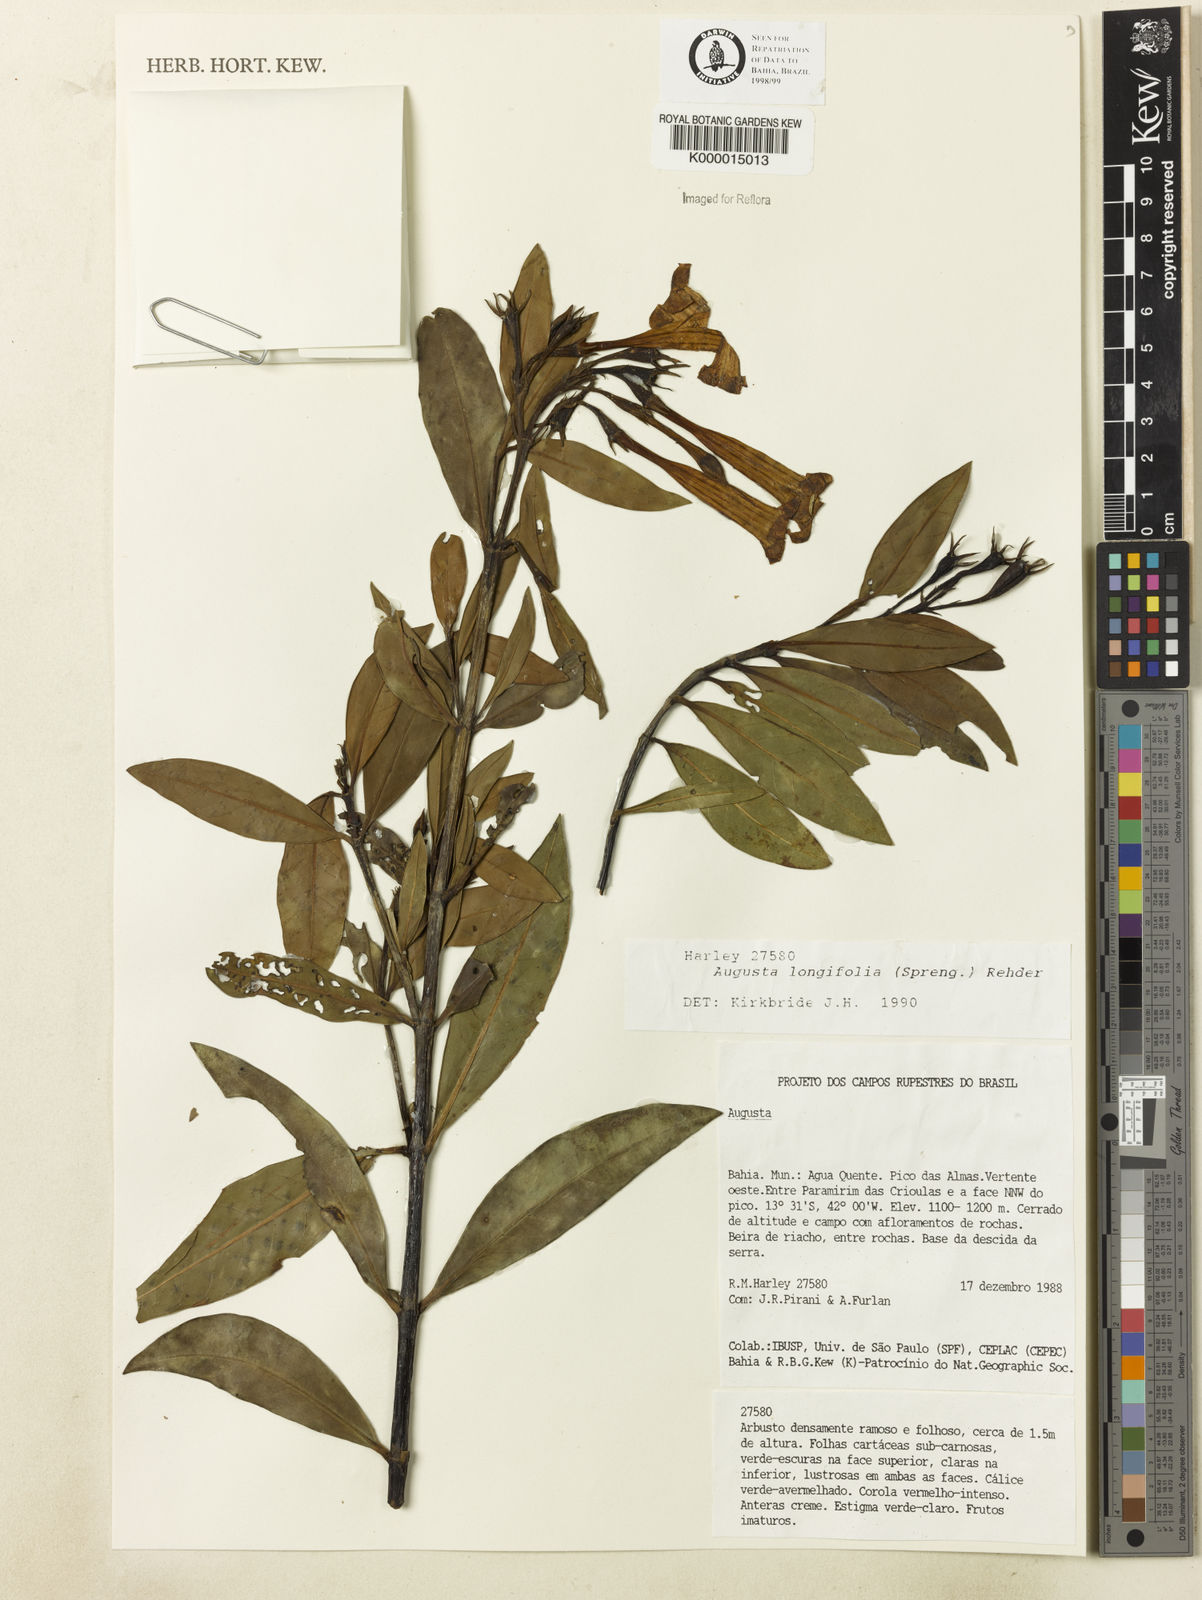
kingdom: Plantae
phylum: Tracheophyta
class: Magnoliopsida
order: Gentianales
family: Rubiaceae
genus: Augusta
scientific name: Augusta longifolia
